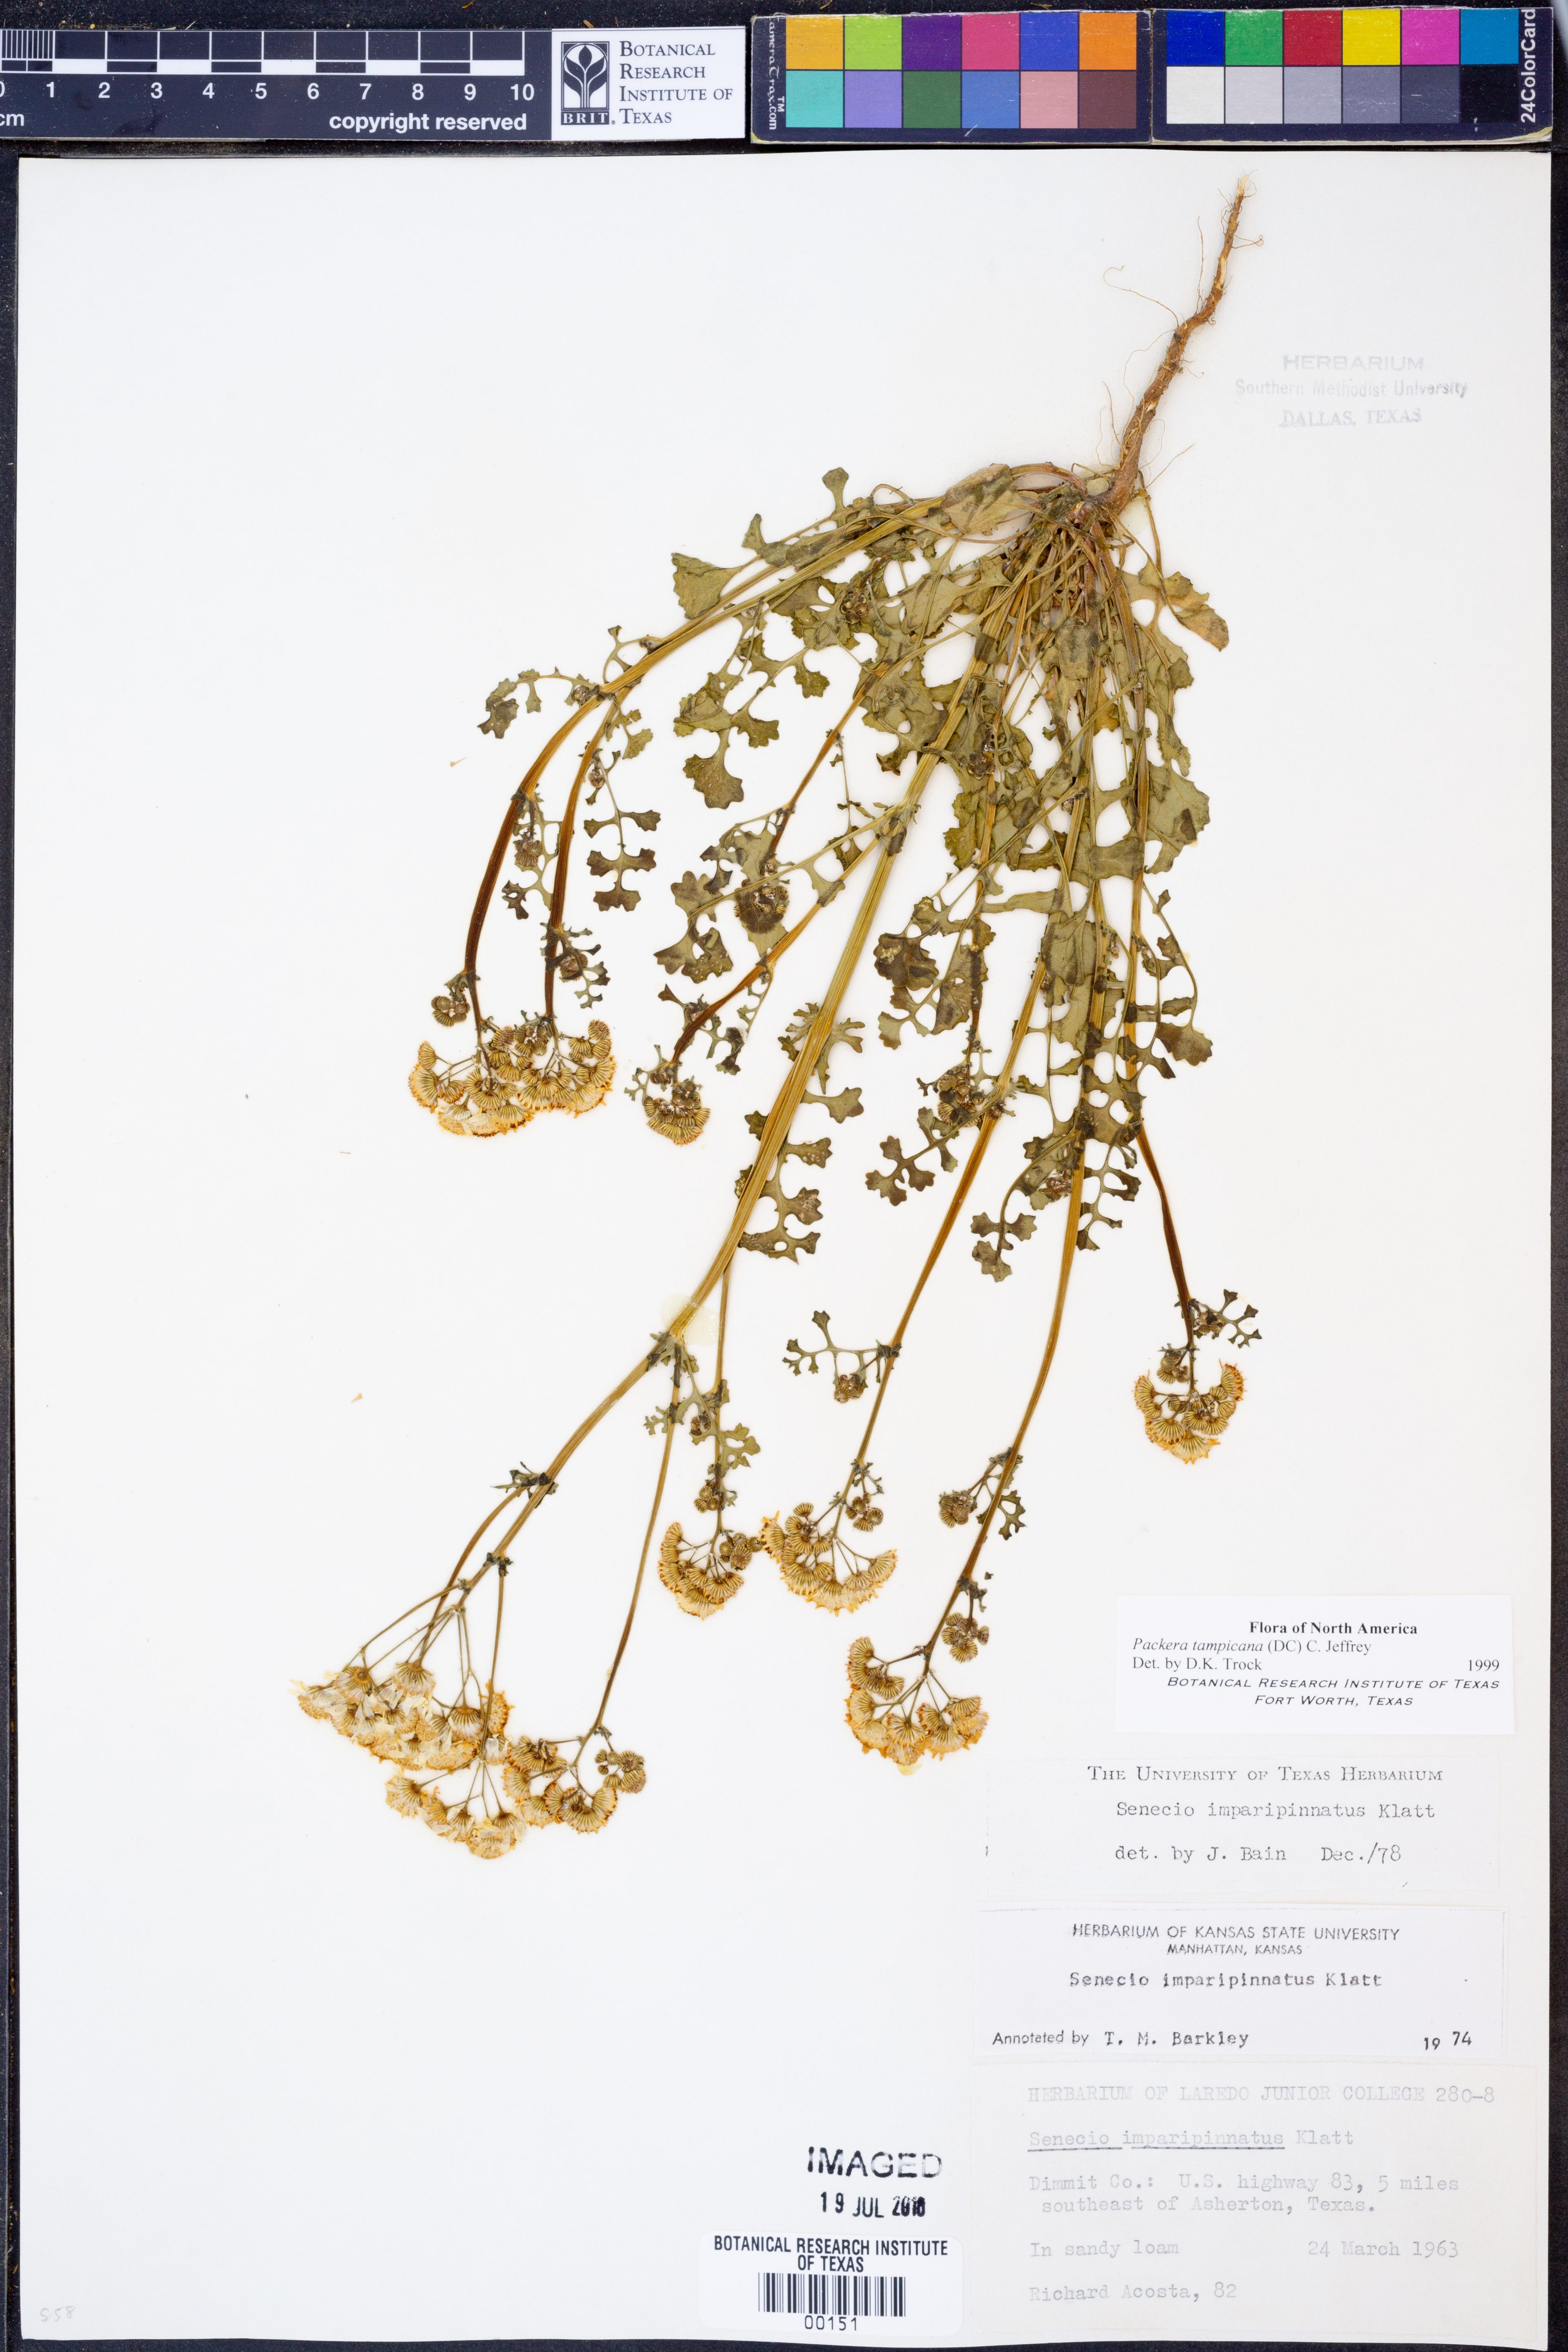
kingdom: Plantae
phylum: Tracheophyta
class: Magnoliopsida
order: Asterales
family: Asteraceae
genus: Packera
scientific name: Packera tampicana
